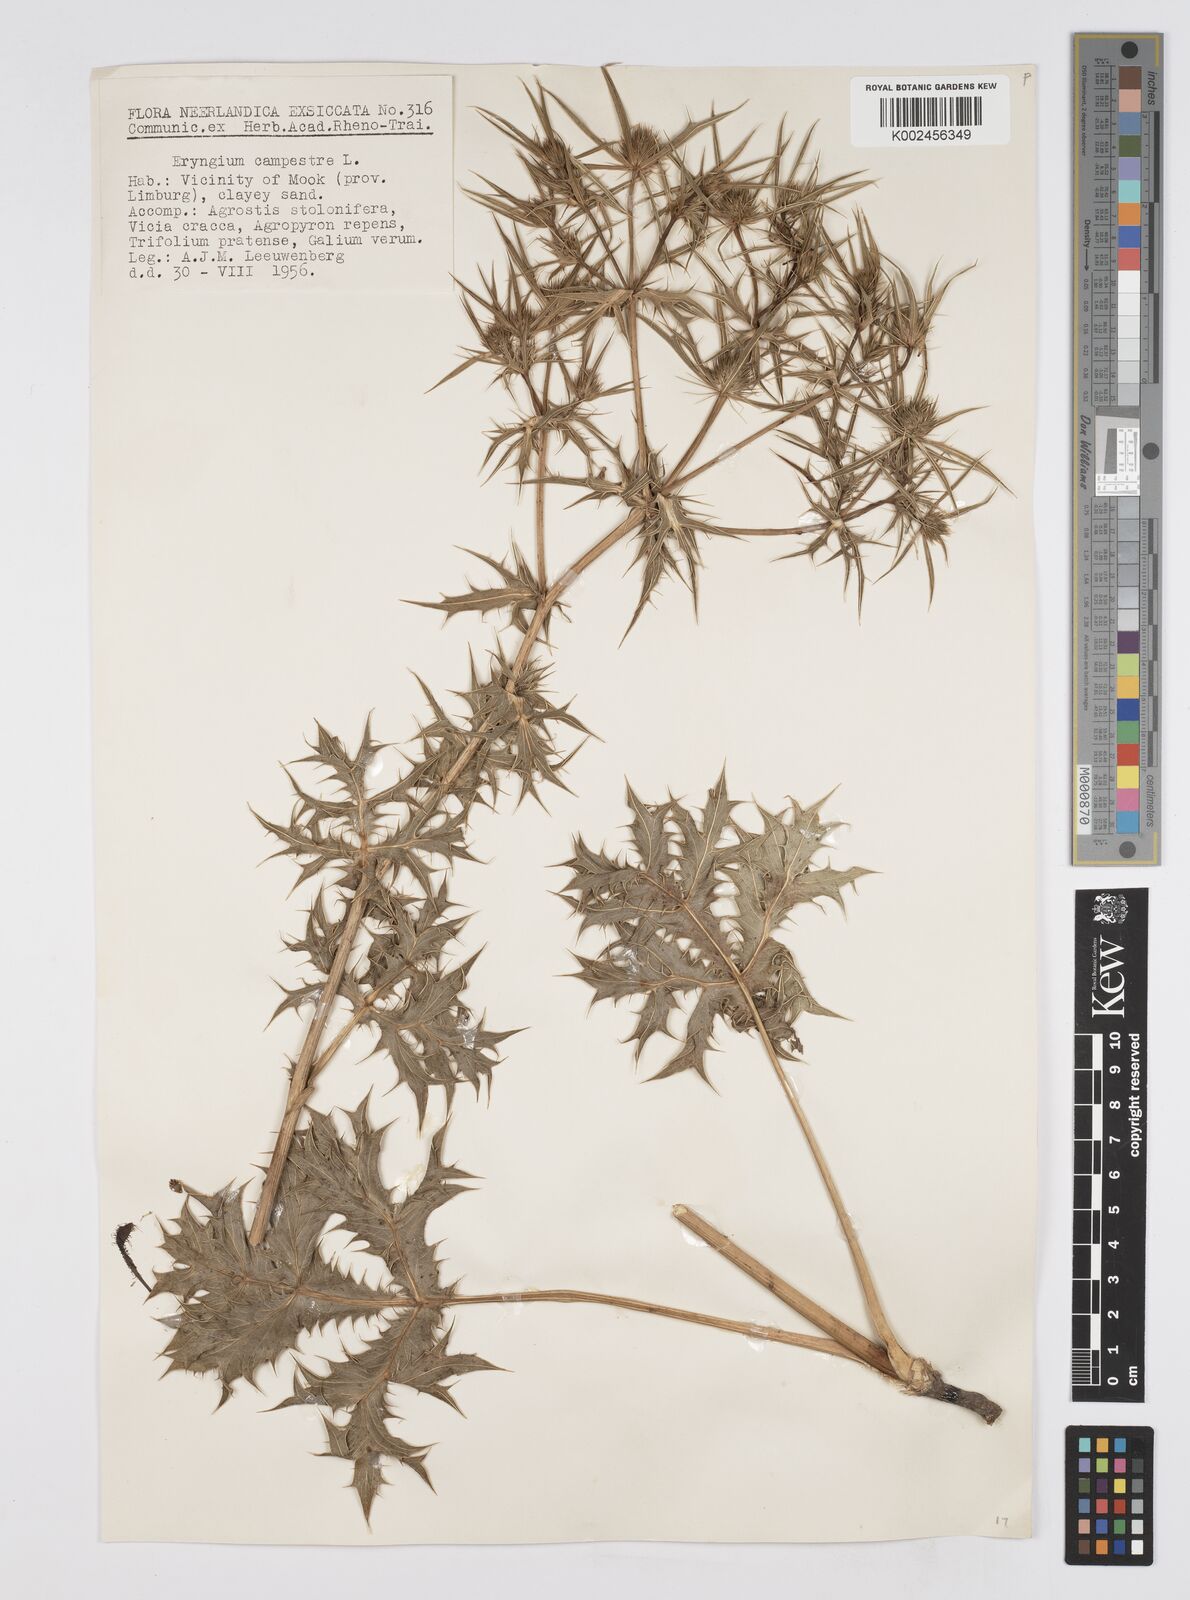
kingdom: Plantae
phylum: Tracheophyta
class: Magnoliopsida
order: Apiales
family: Apiaceae
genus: Eryngium
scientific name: Eryngium campestre
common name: Field eryngo
